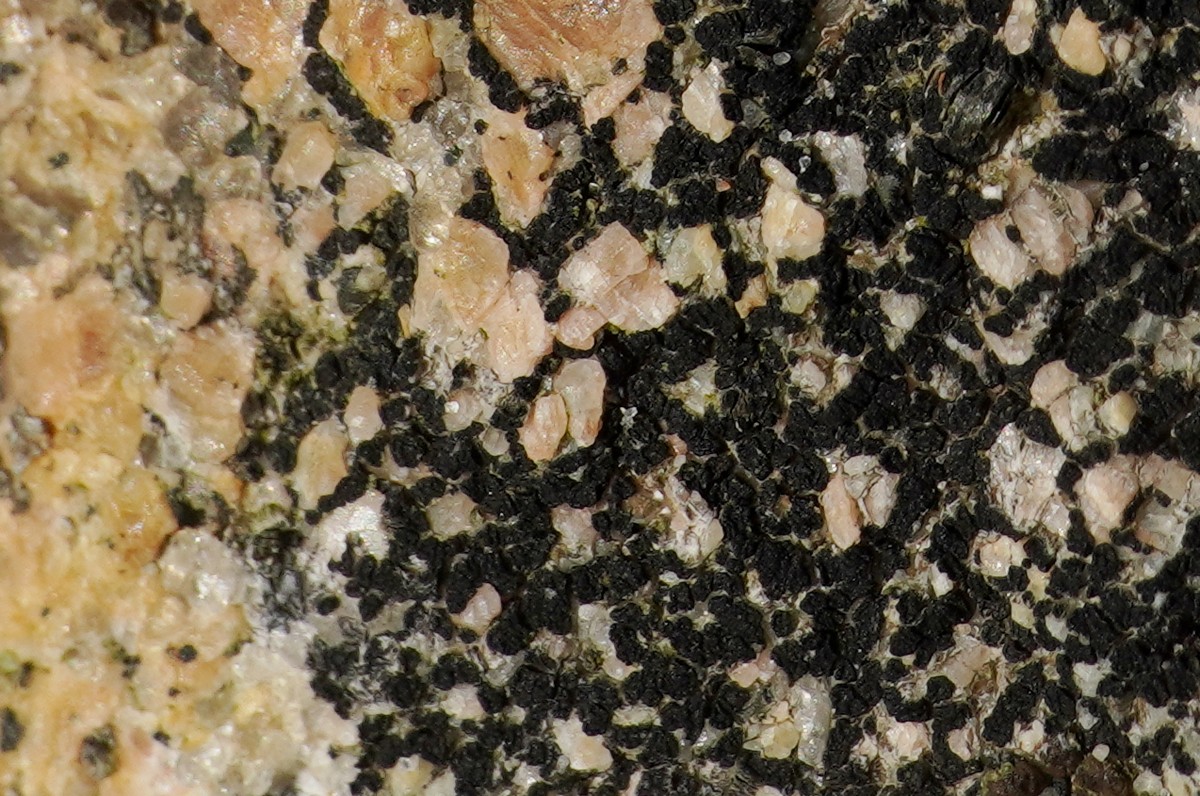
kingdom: Fungi
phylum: Ascomycota
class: Lecanoromycetes
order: Acarosporales
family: Acarosporaceae
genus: Acarospora
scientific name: Acarospora privigna
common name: sort foldekantlav
